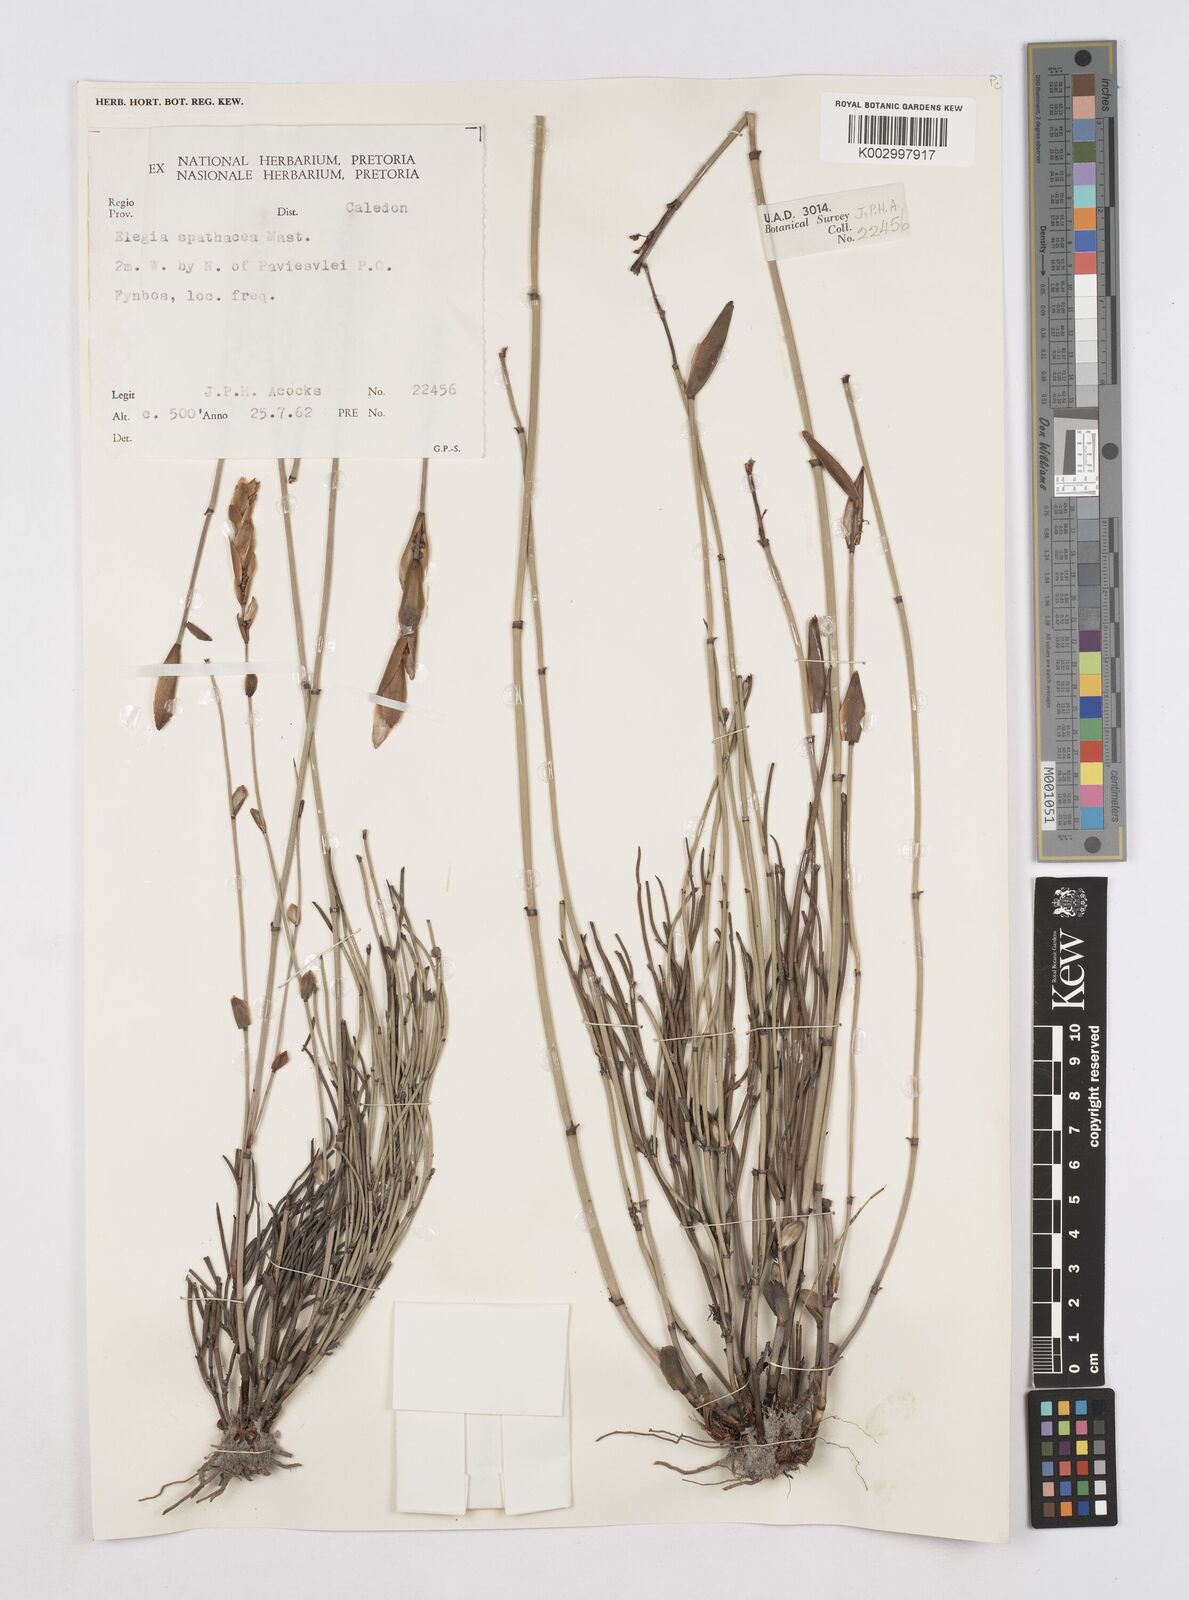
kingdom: Plantae
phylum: Tracheophyta
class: Liliopsida
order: Poales
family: Restionaceae
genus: Elegia
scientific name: Elegia spathacea
